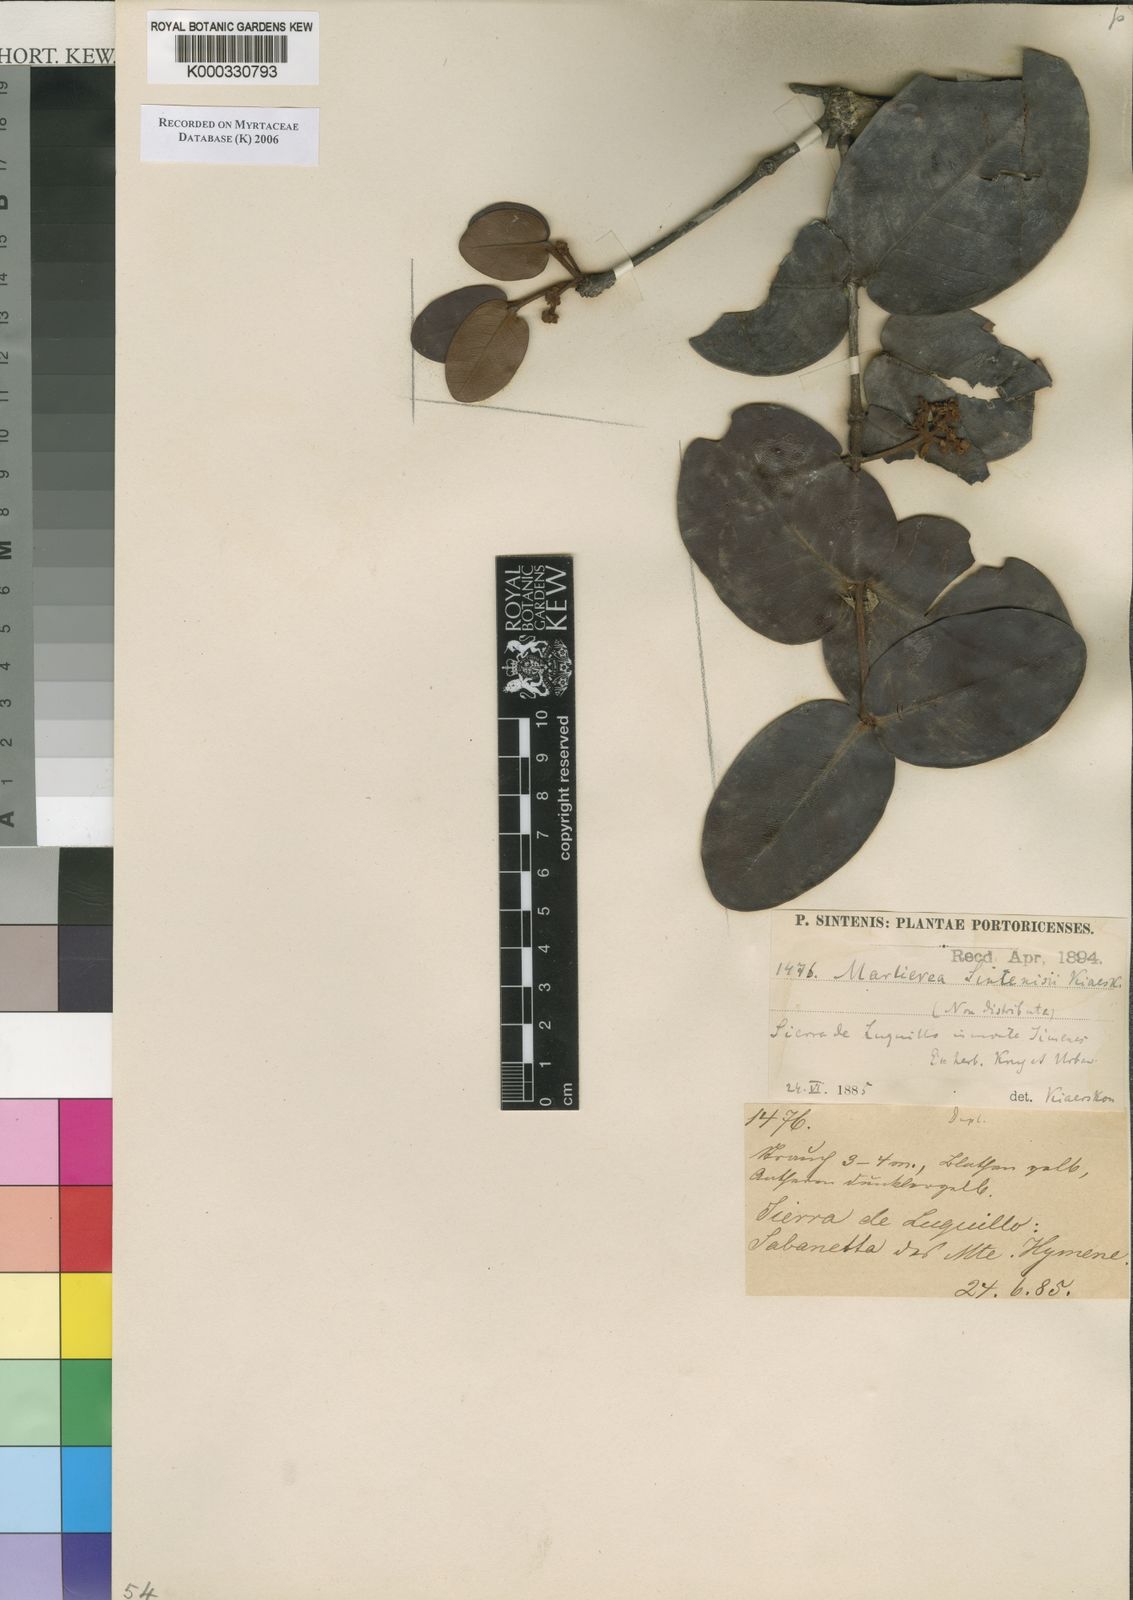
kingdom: Plantae
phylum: Tracheophyta
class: Magnoliopsida
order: Myrtales
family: Myrtaceae
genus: Myrcia
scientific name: Myrcia sintenisiana
